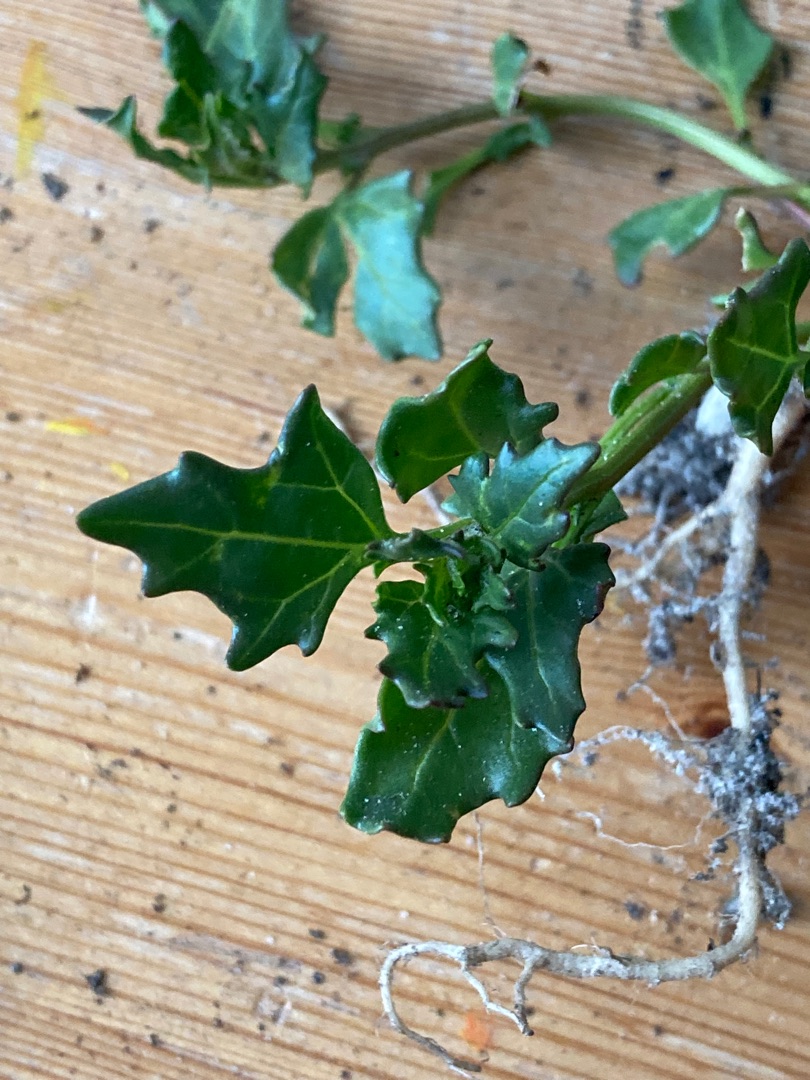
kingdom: Plantae
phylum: Tracheophyta
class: Magnoliopsida
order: Caryophyllales
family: Amaranthaceae
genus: Oxybasis
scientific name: Oxybasis rubra
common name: Rød gåsefod
